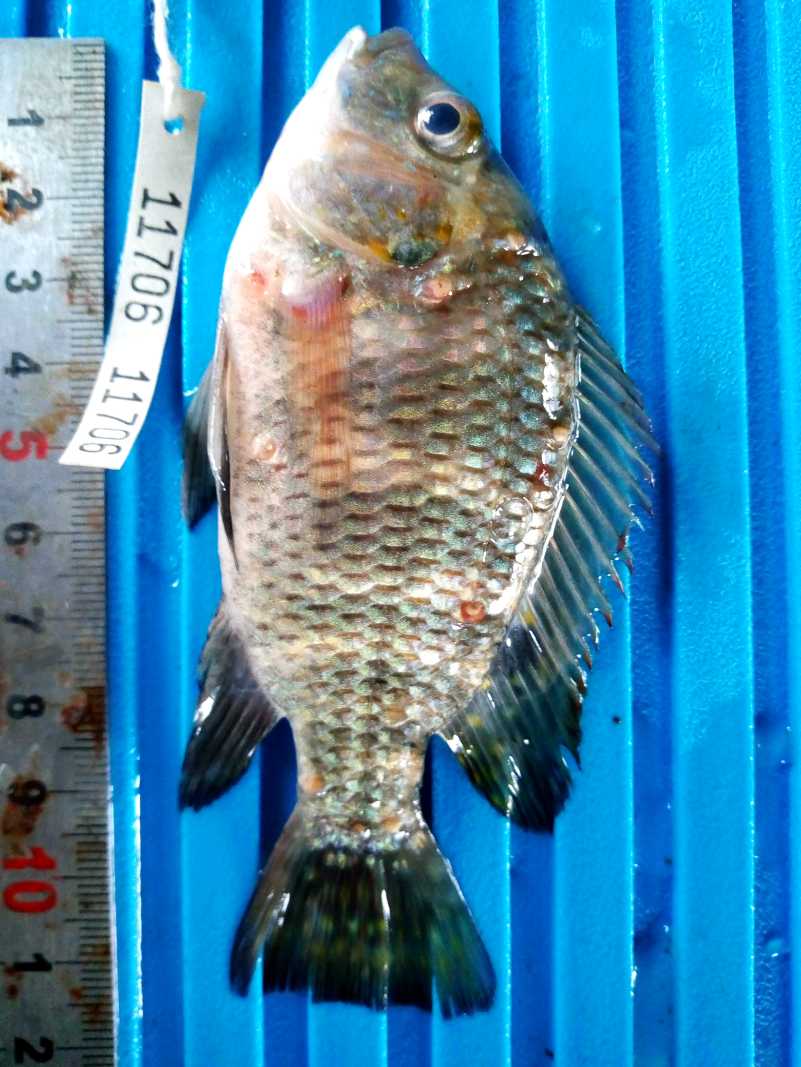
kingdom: Animalia
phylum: Chordata
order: Perciformes
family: Cichlidae
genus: Coptodon
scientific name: Coptodon zillii
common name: Redbelly tilapia
